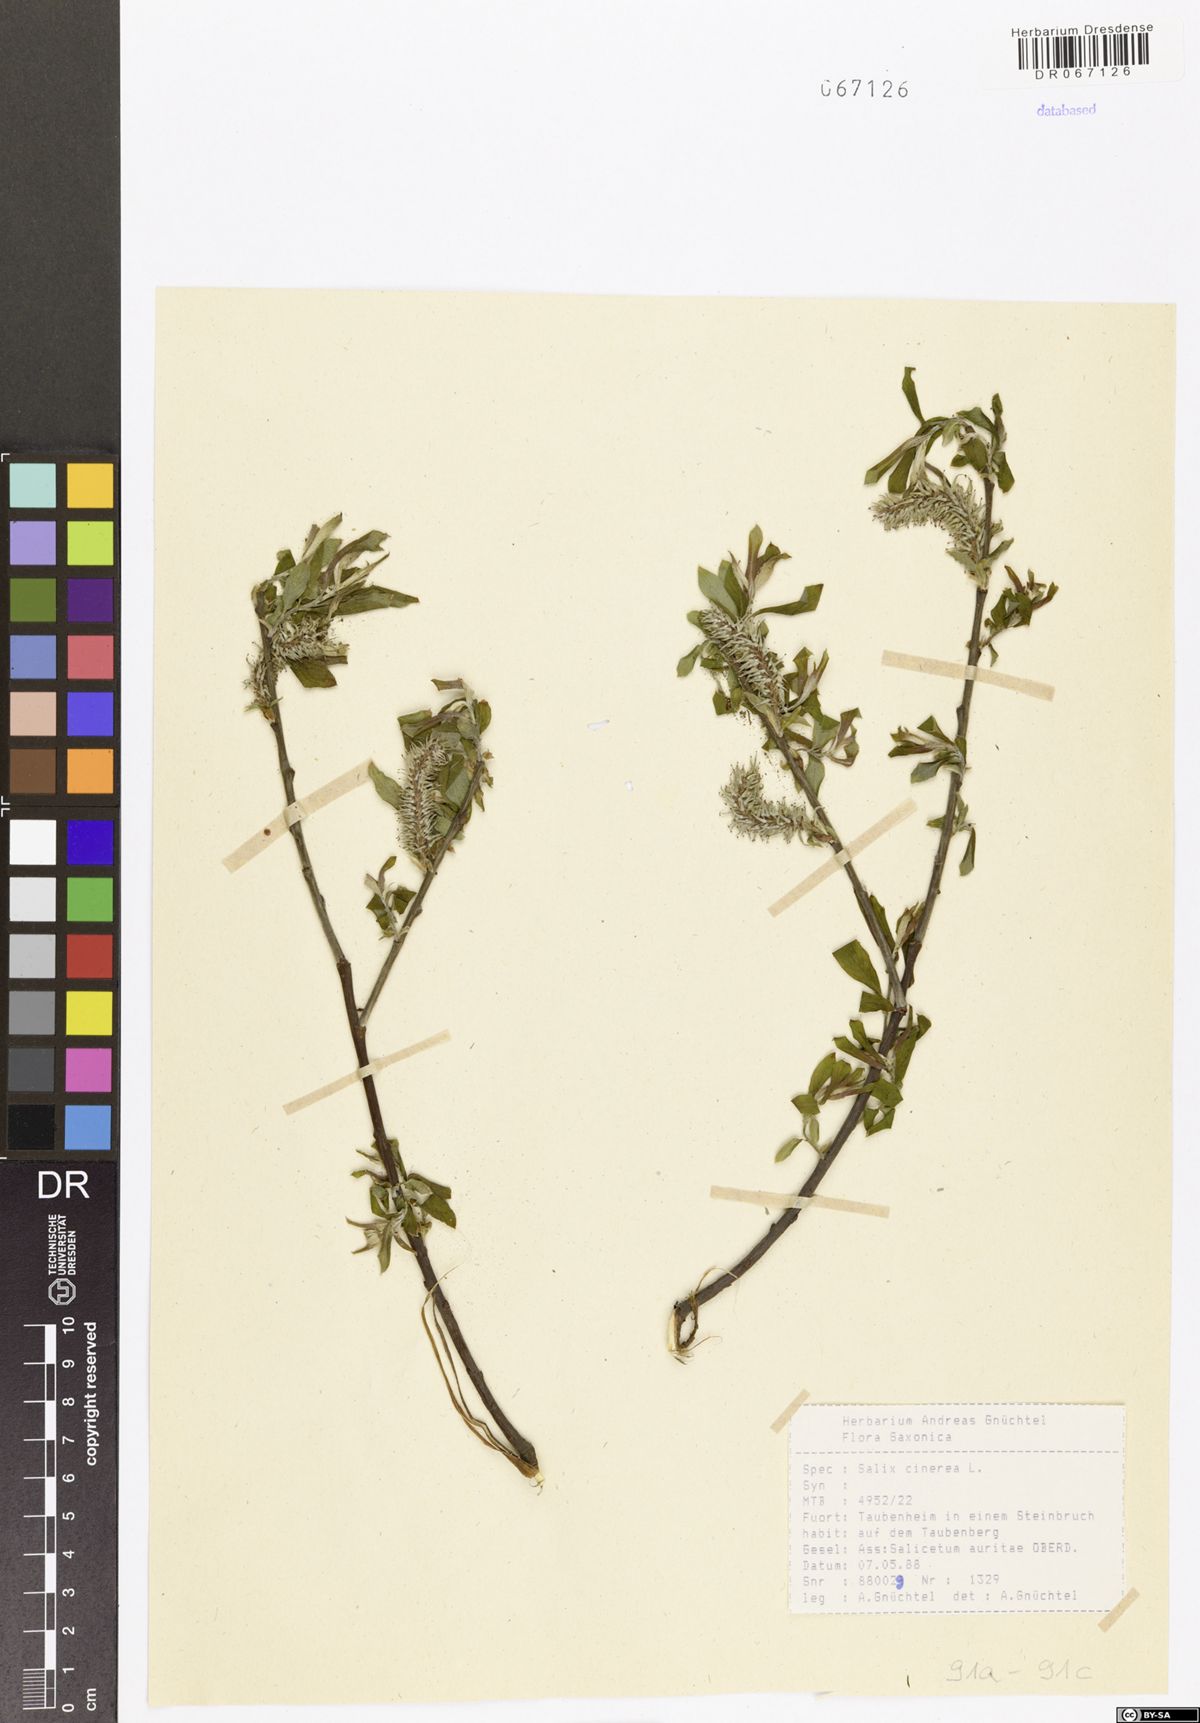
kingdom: Plantae
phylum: Tracheophyta
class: Magnoliopsida
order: Malpighiales
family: Salicaceae
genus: Salix
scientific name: Salix cinerea
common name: Common sallow
